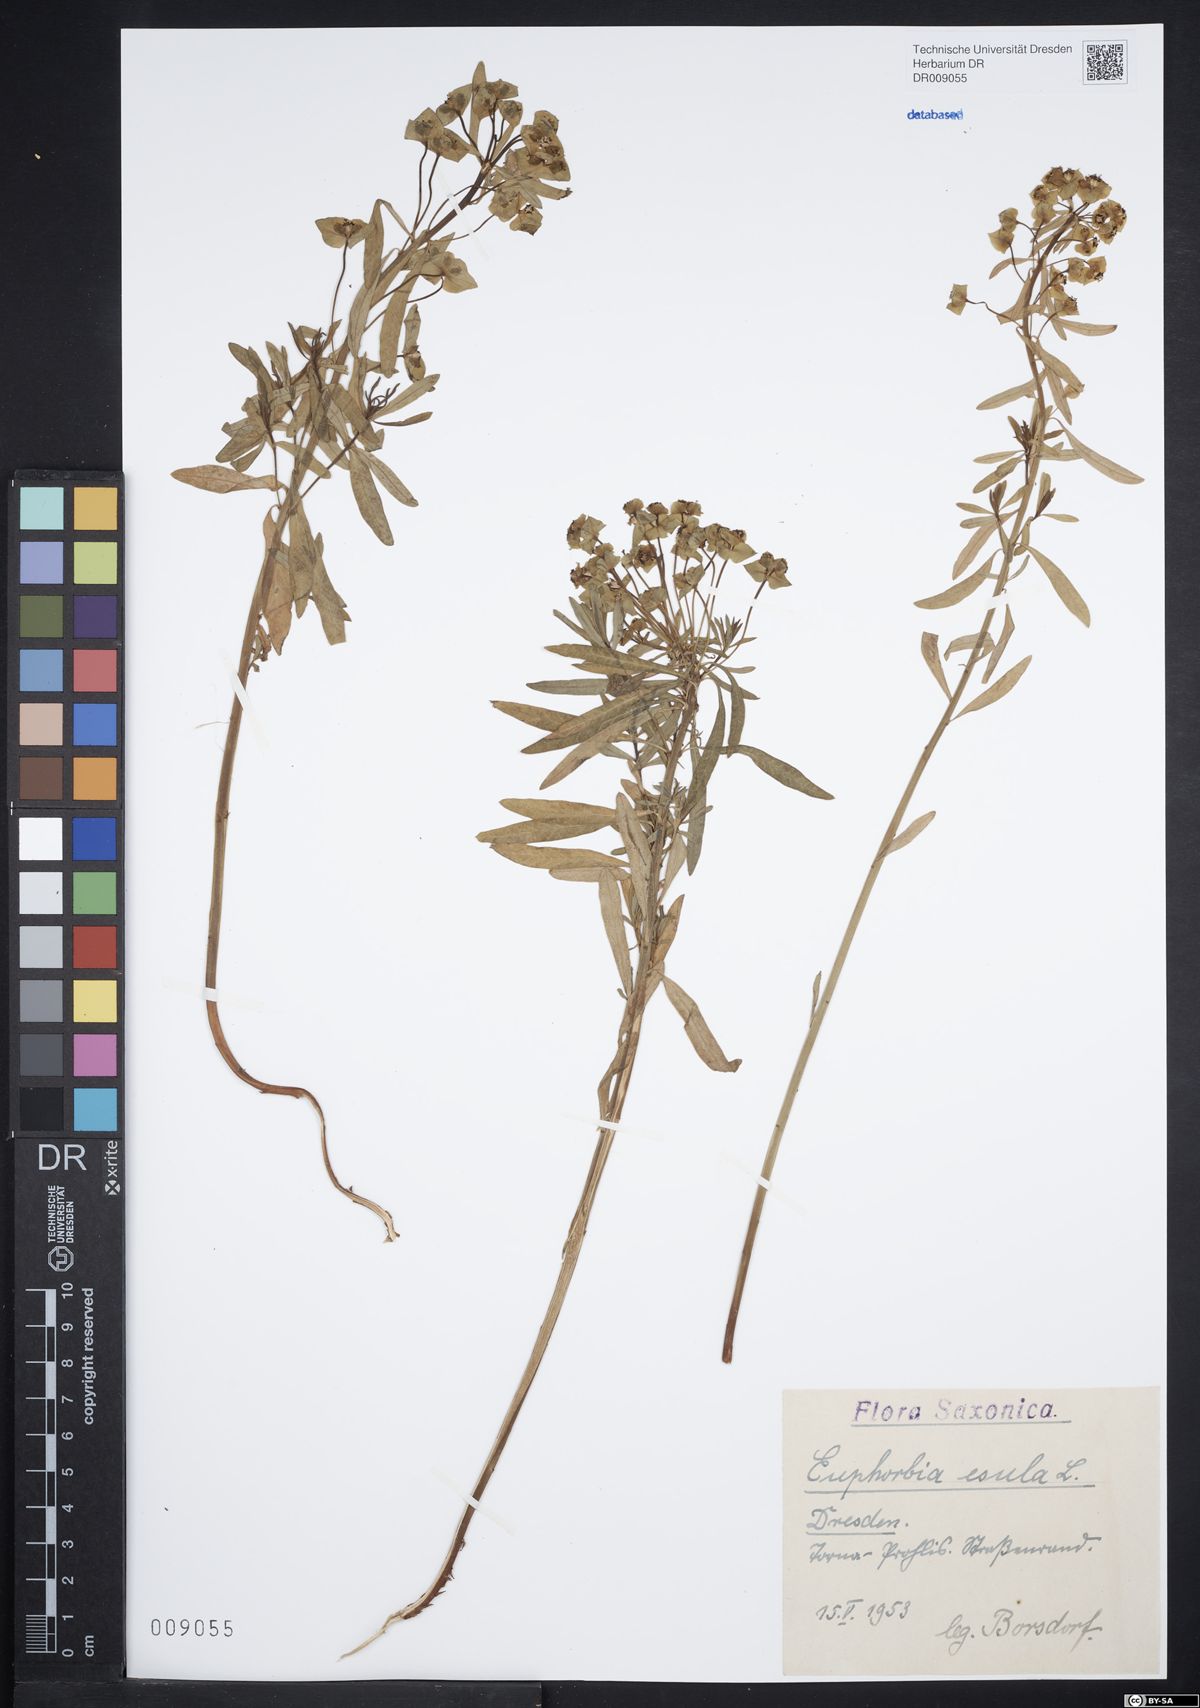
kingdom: Plantae
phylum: Tracheophyta
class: Magnoliopsida
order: Malpighiales
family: Euphorbiaceae
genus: Euphorbia
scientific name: Euphorbia esula
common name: Leafy spurge
